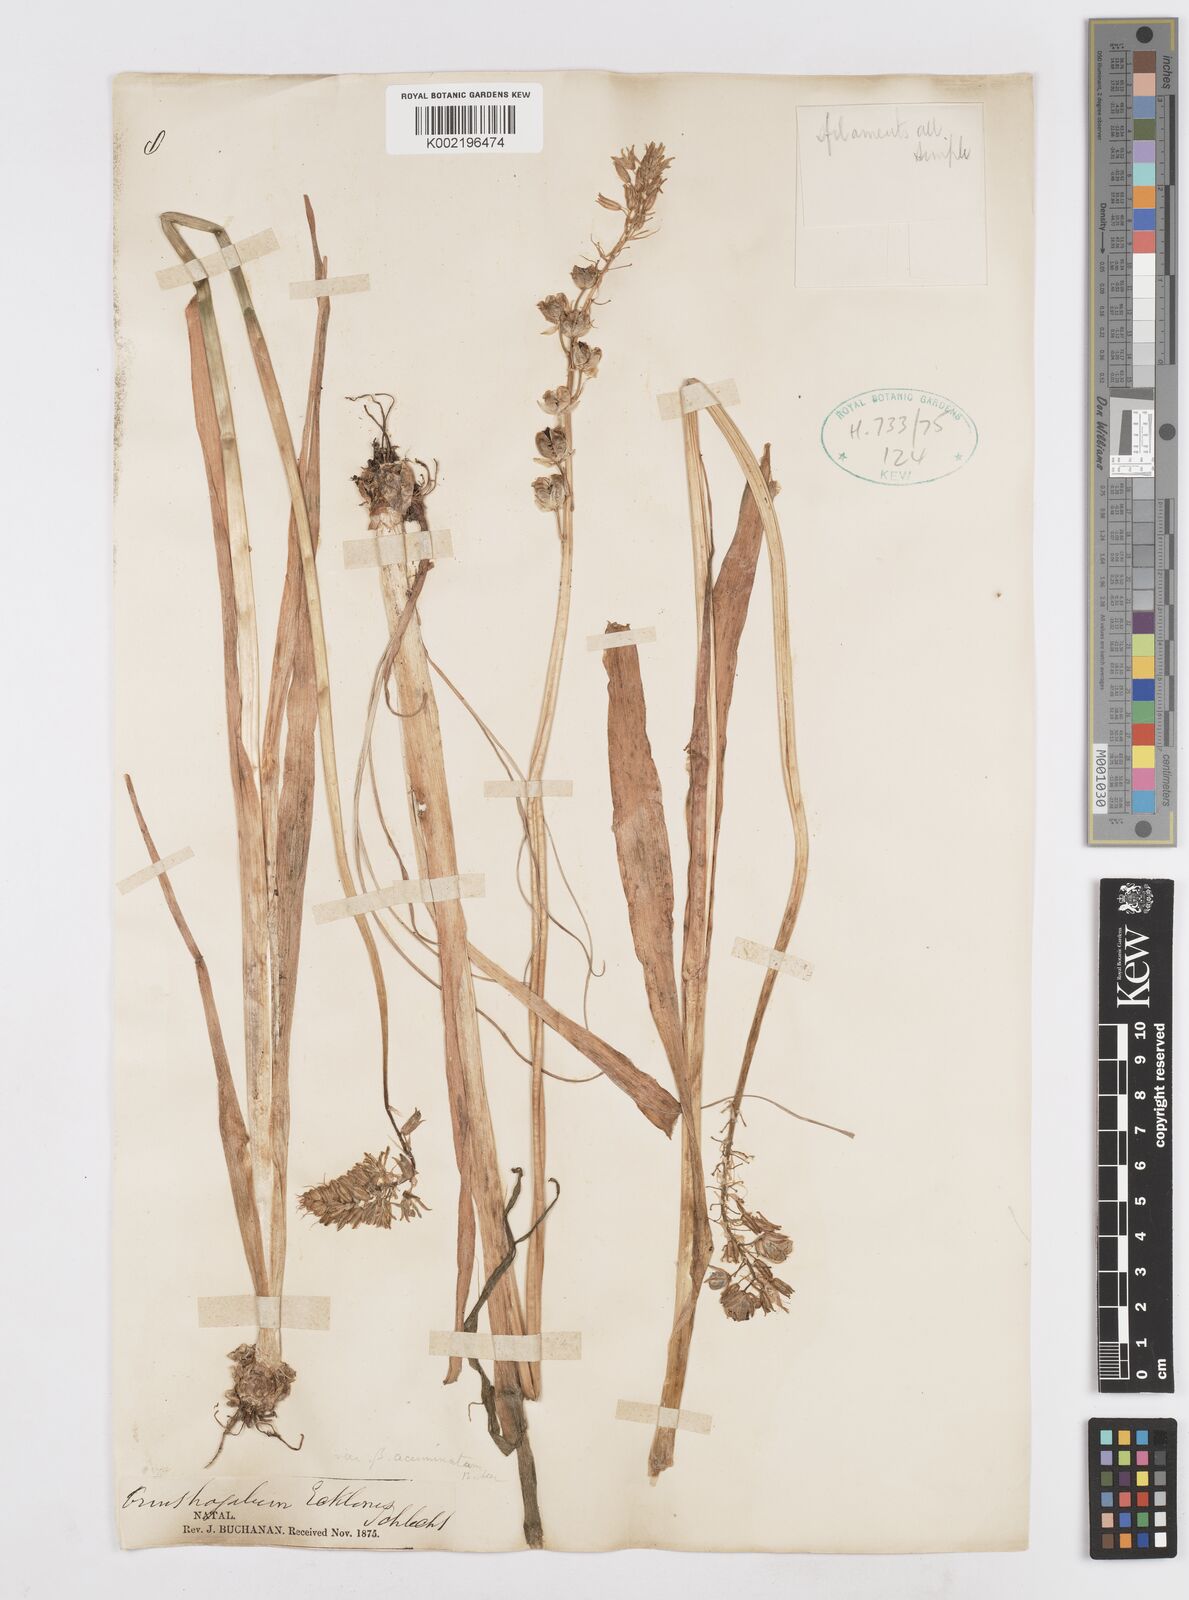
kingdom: Plantae
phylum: Tracheophyta
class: Liliopsida
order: Asparagales
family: Asparagaceae
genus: Albuca
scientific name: Albuca virens
